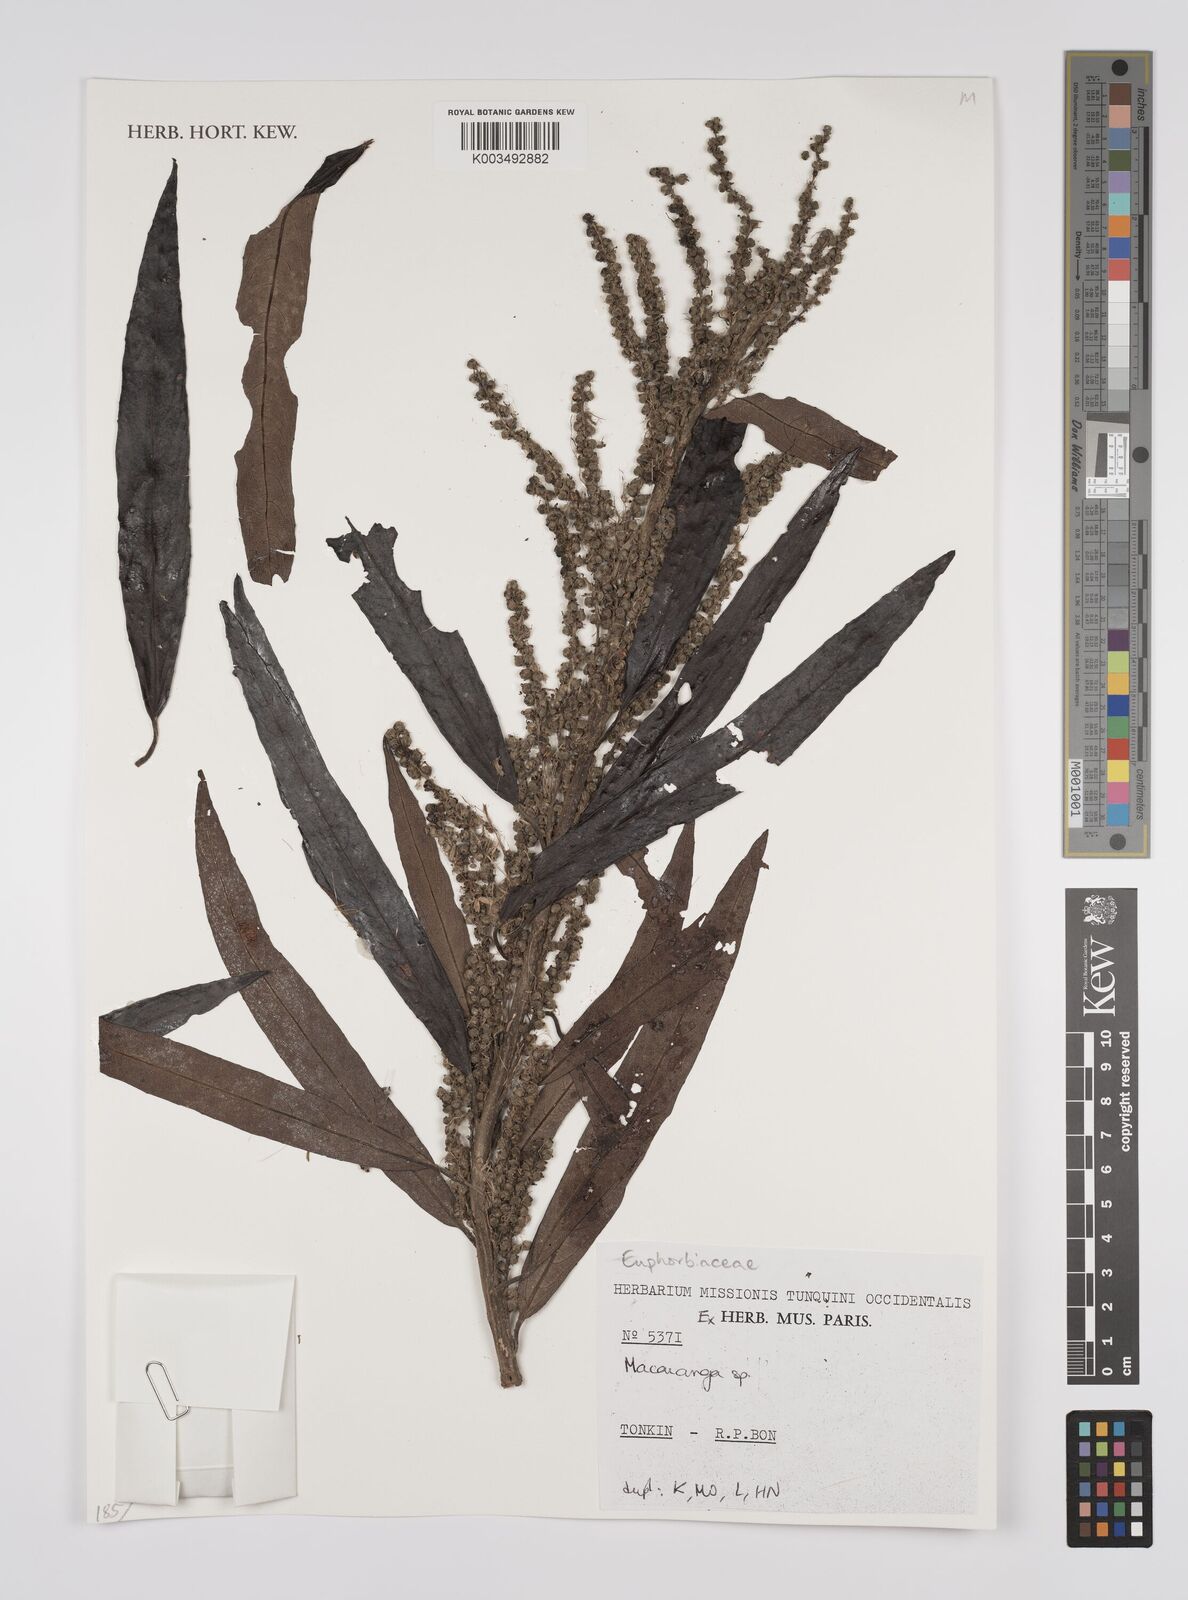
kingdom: Plantae
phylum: Tracheophyta
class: Magnoliopsida
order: Malpighiales
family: Euphorbiaceae
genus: Macaranga
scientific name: Macaranga
